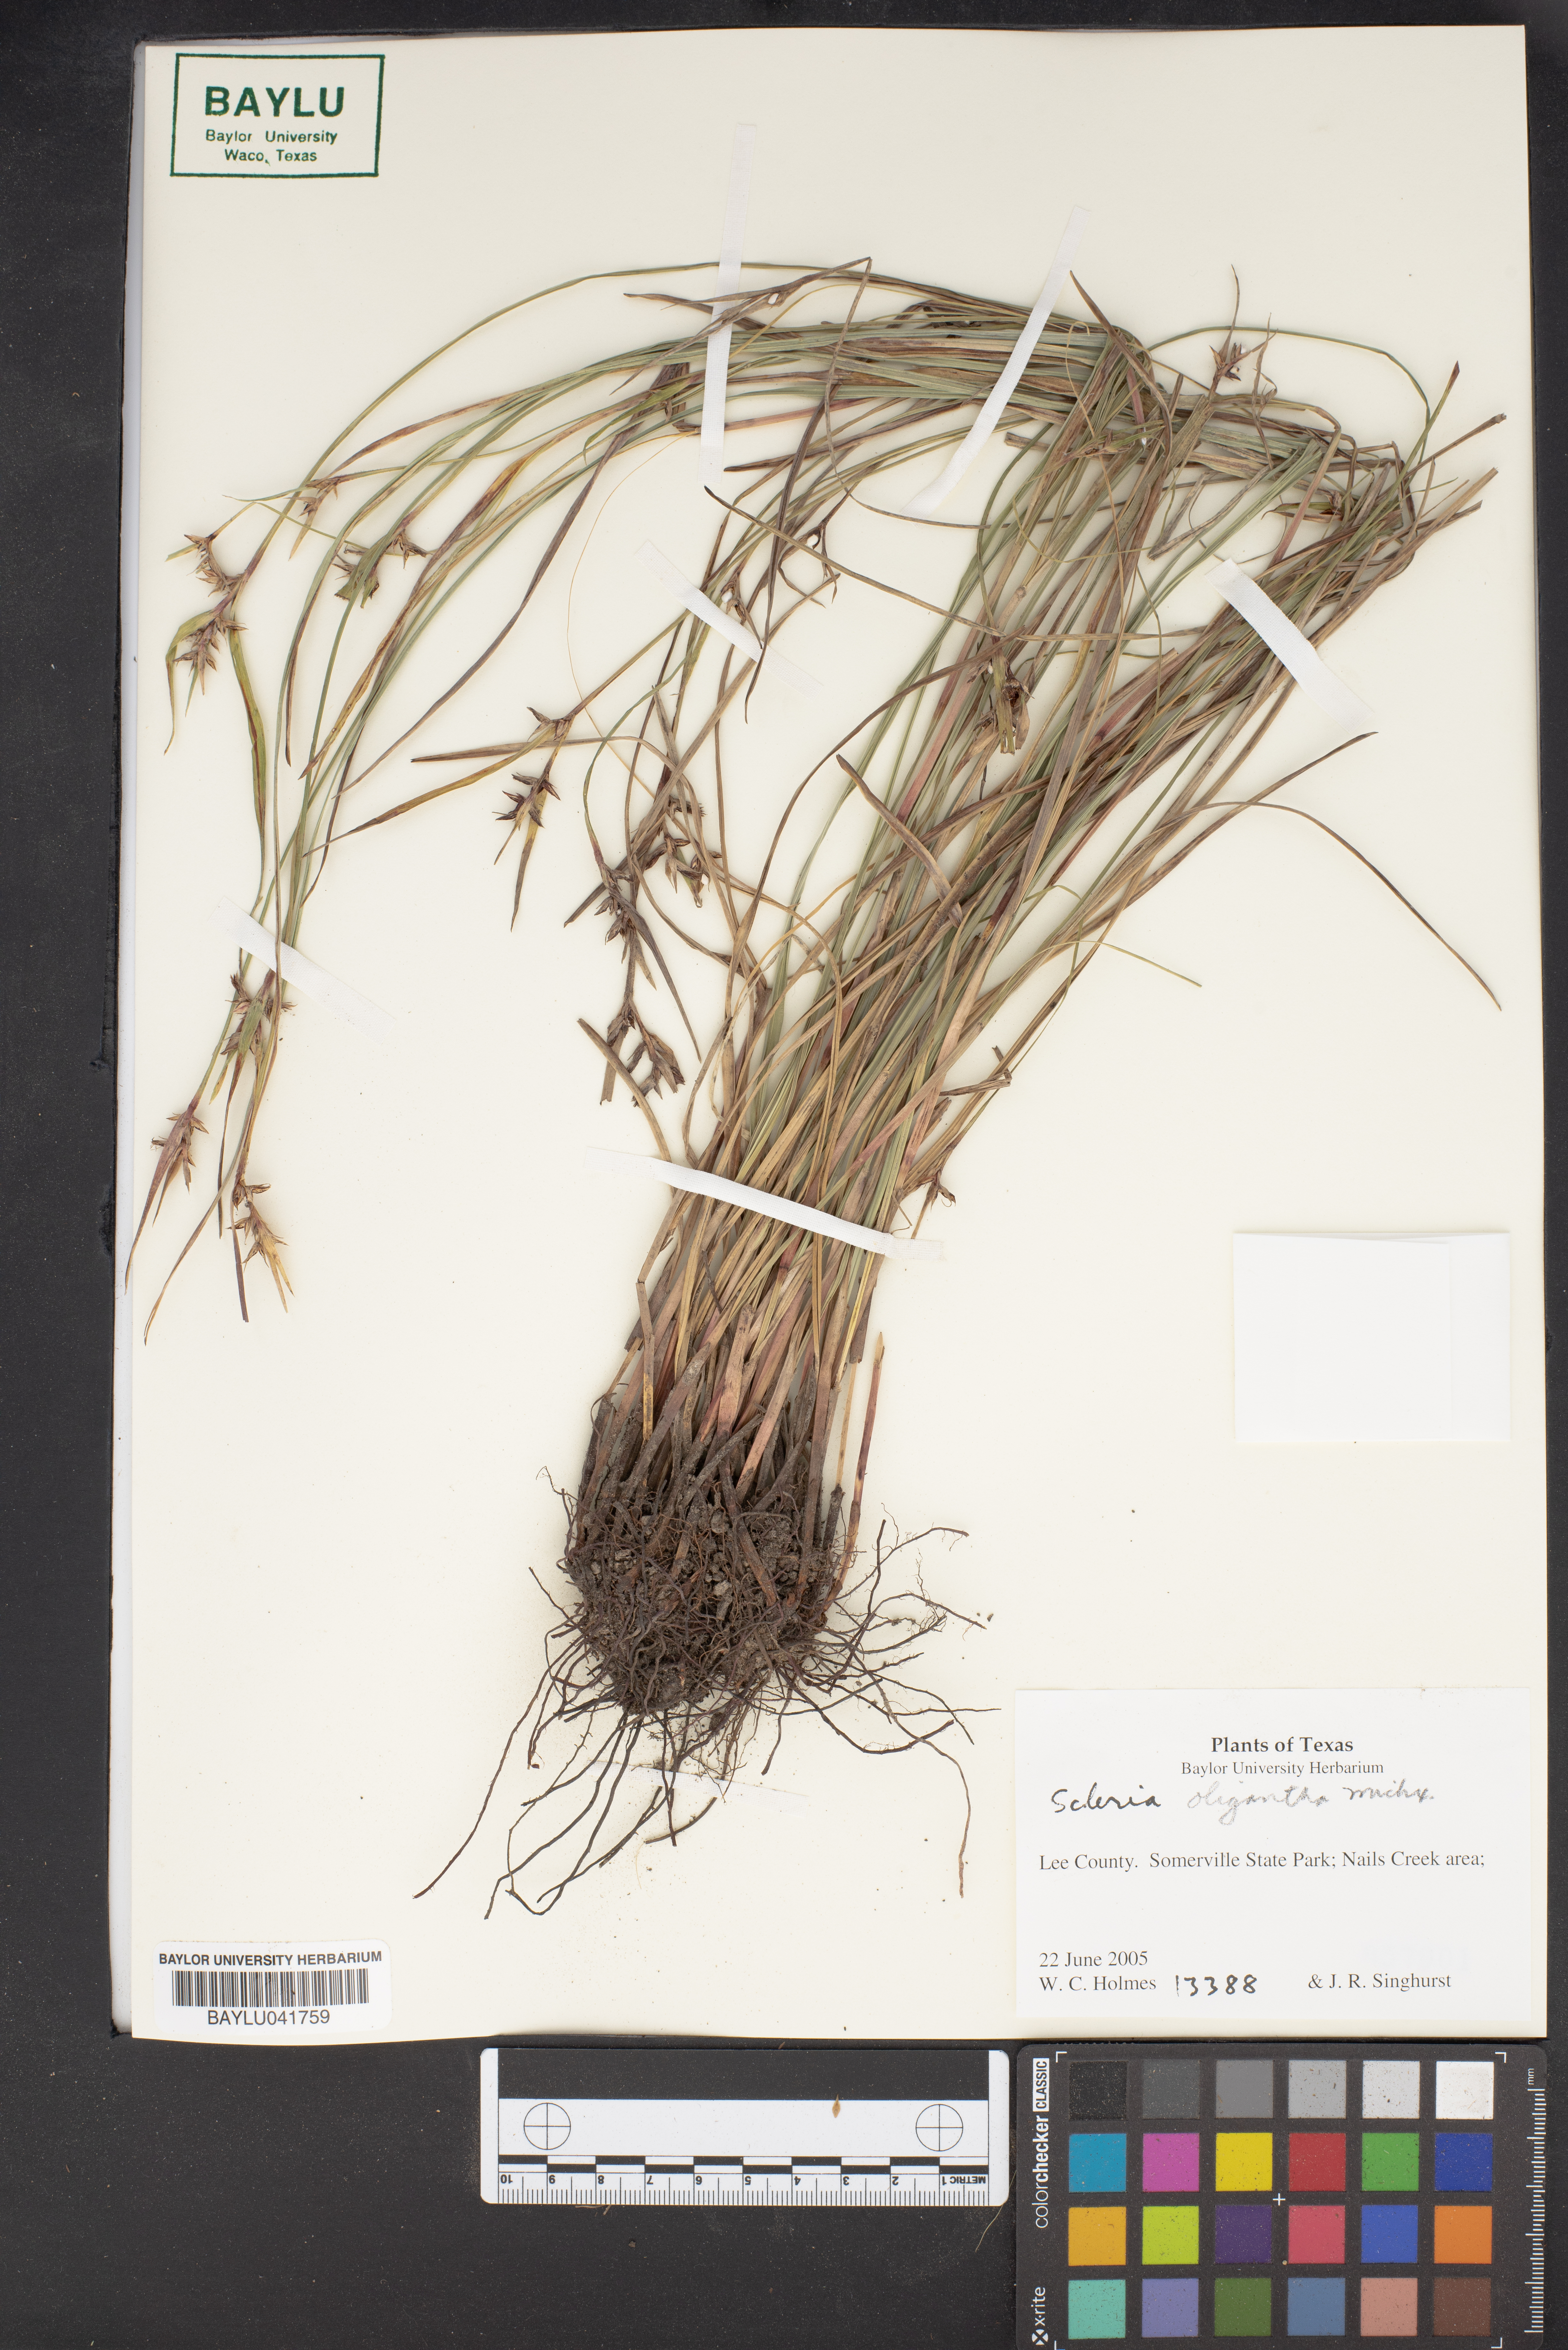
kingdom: Plantae
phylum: Tracheophyta
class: Liliopsida
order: Poales
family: Cyperaceae
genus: Scleria
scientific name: Scleria oligantha
